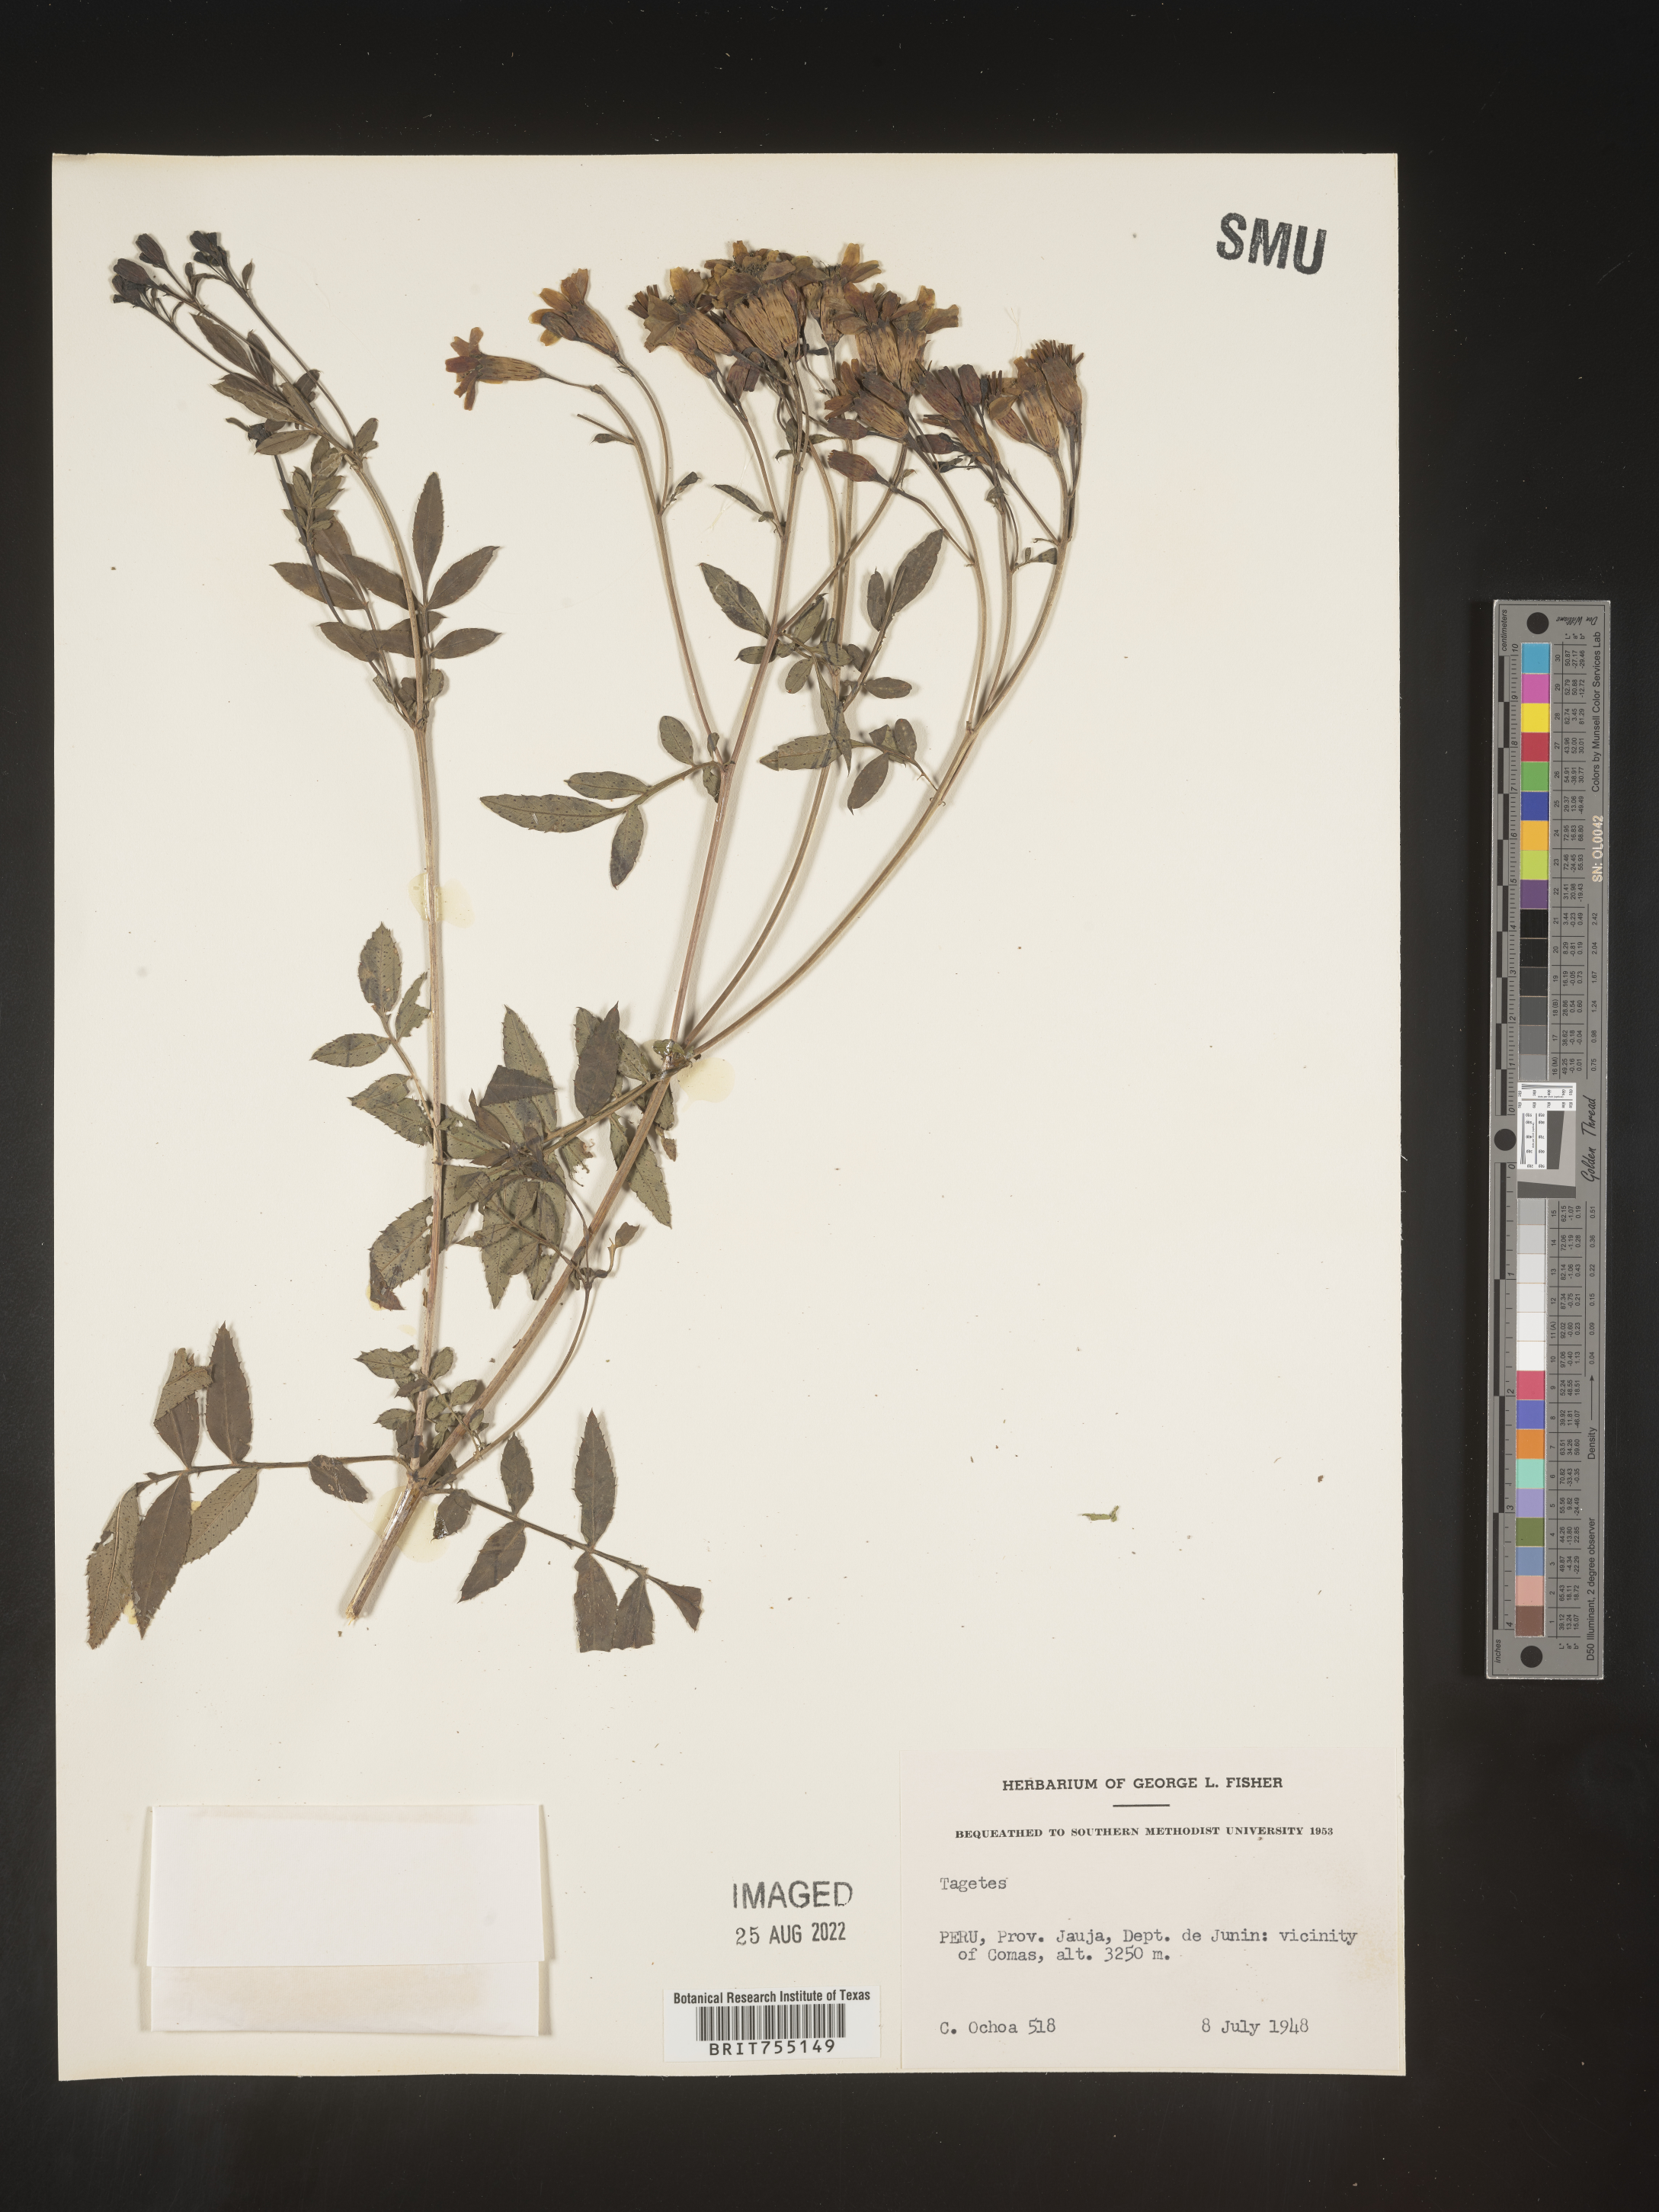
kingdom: Plantae
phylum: Tracheophyta
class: Magnoliopsida
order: Asterales
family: Asteraceae
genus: Tagetes
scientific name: Tagetes
